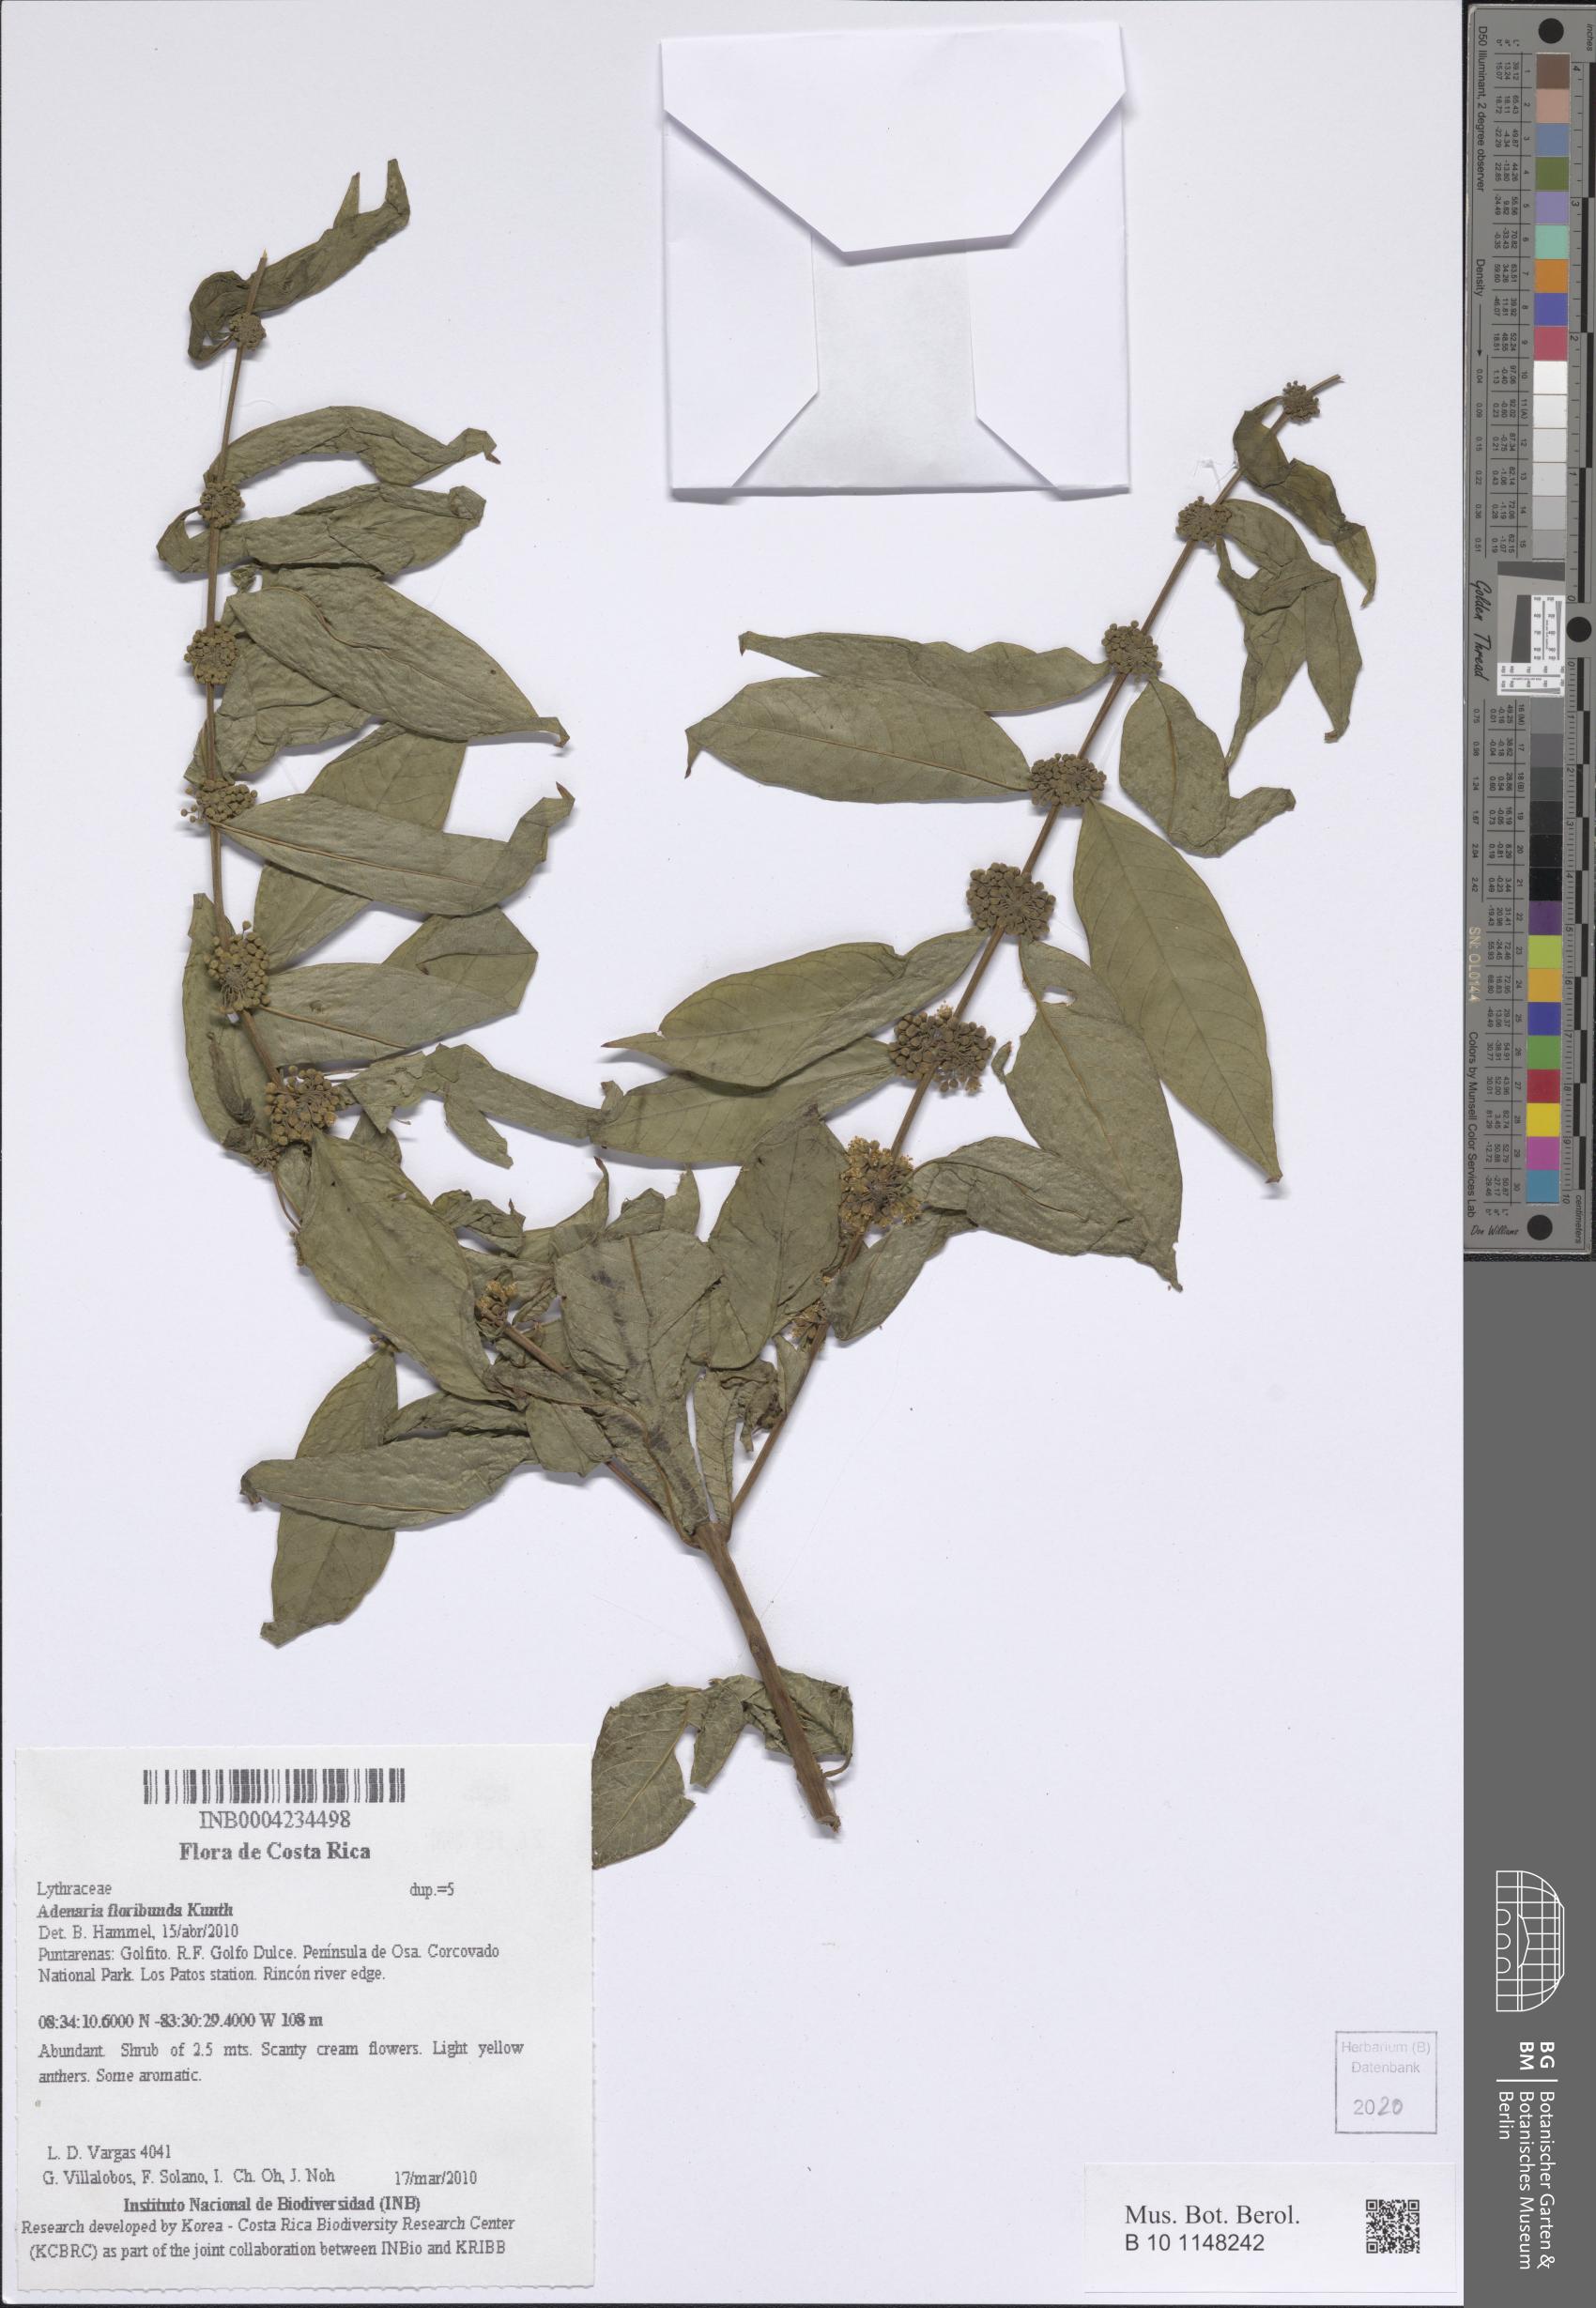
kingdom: Plantae
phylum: Tracheophyta
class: Magnoliopsida
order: Myrtales
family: Lythraceae
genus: Adenaria
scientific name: Adenaria floribunda
